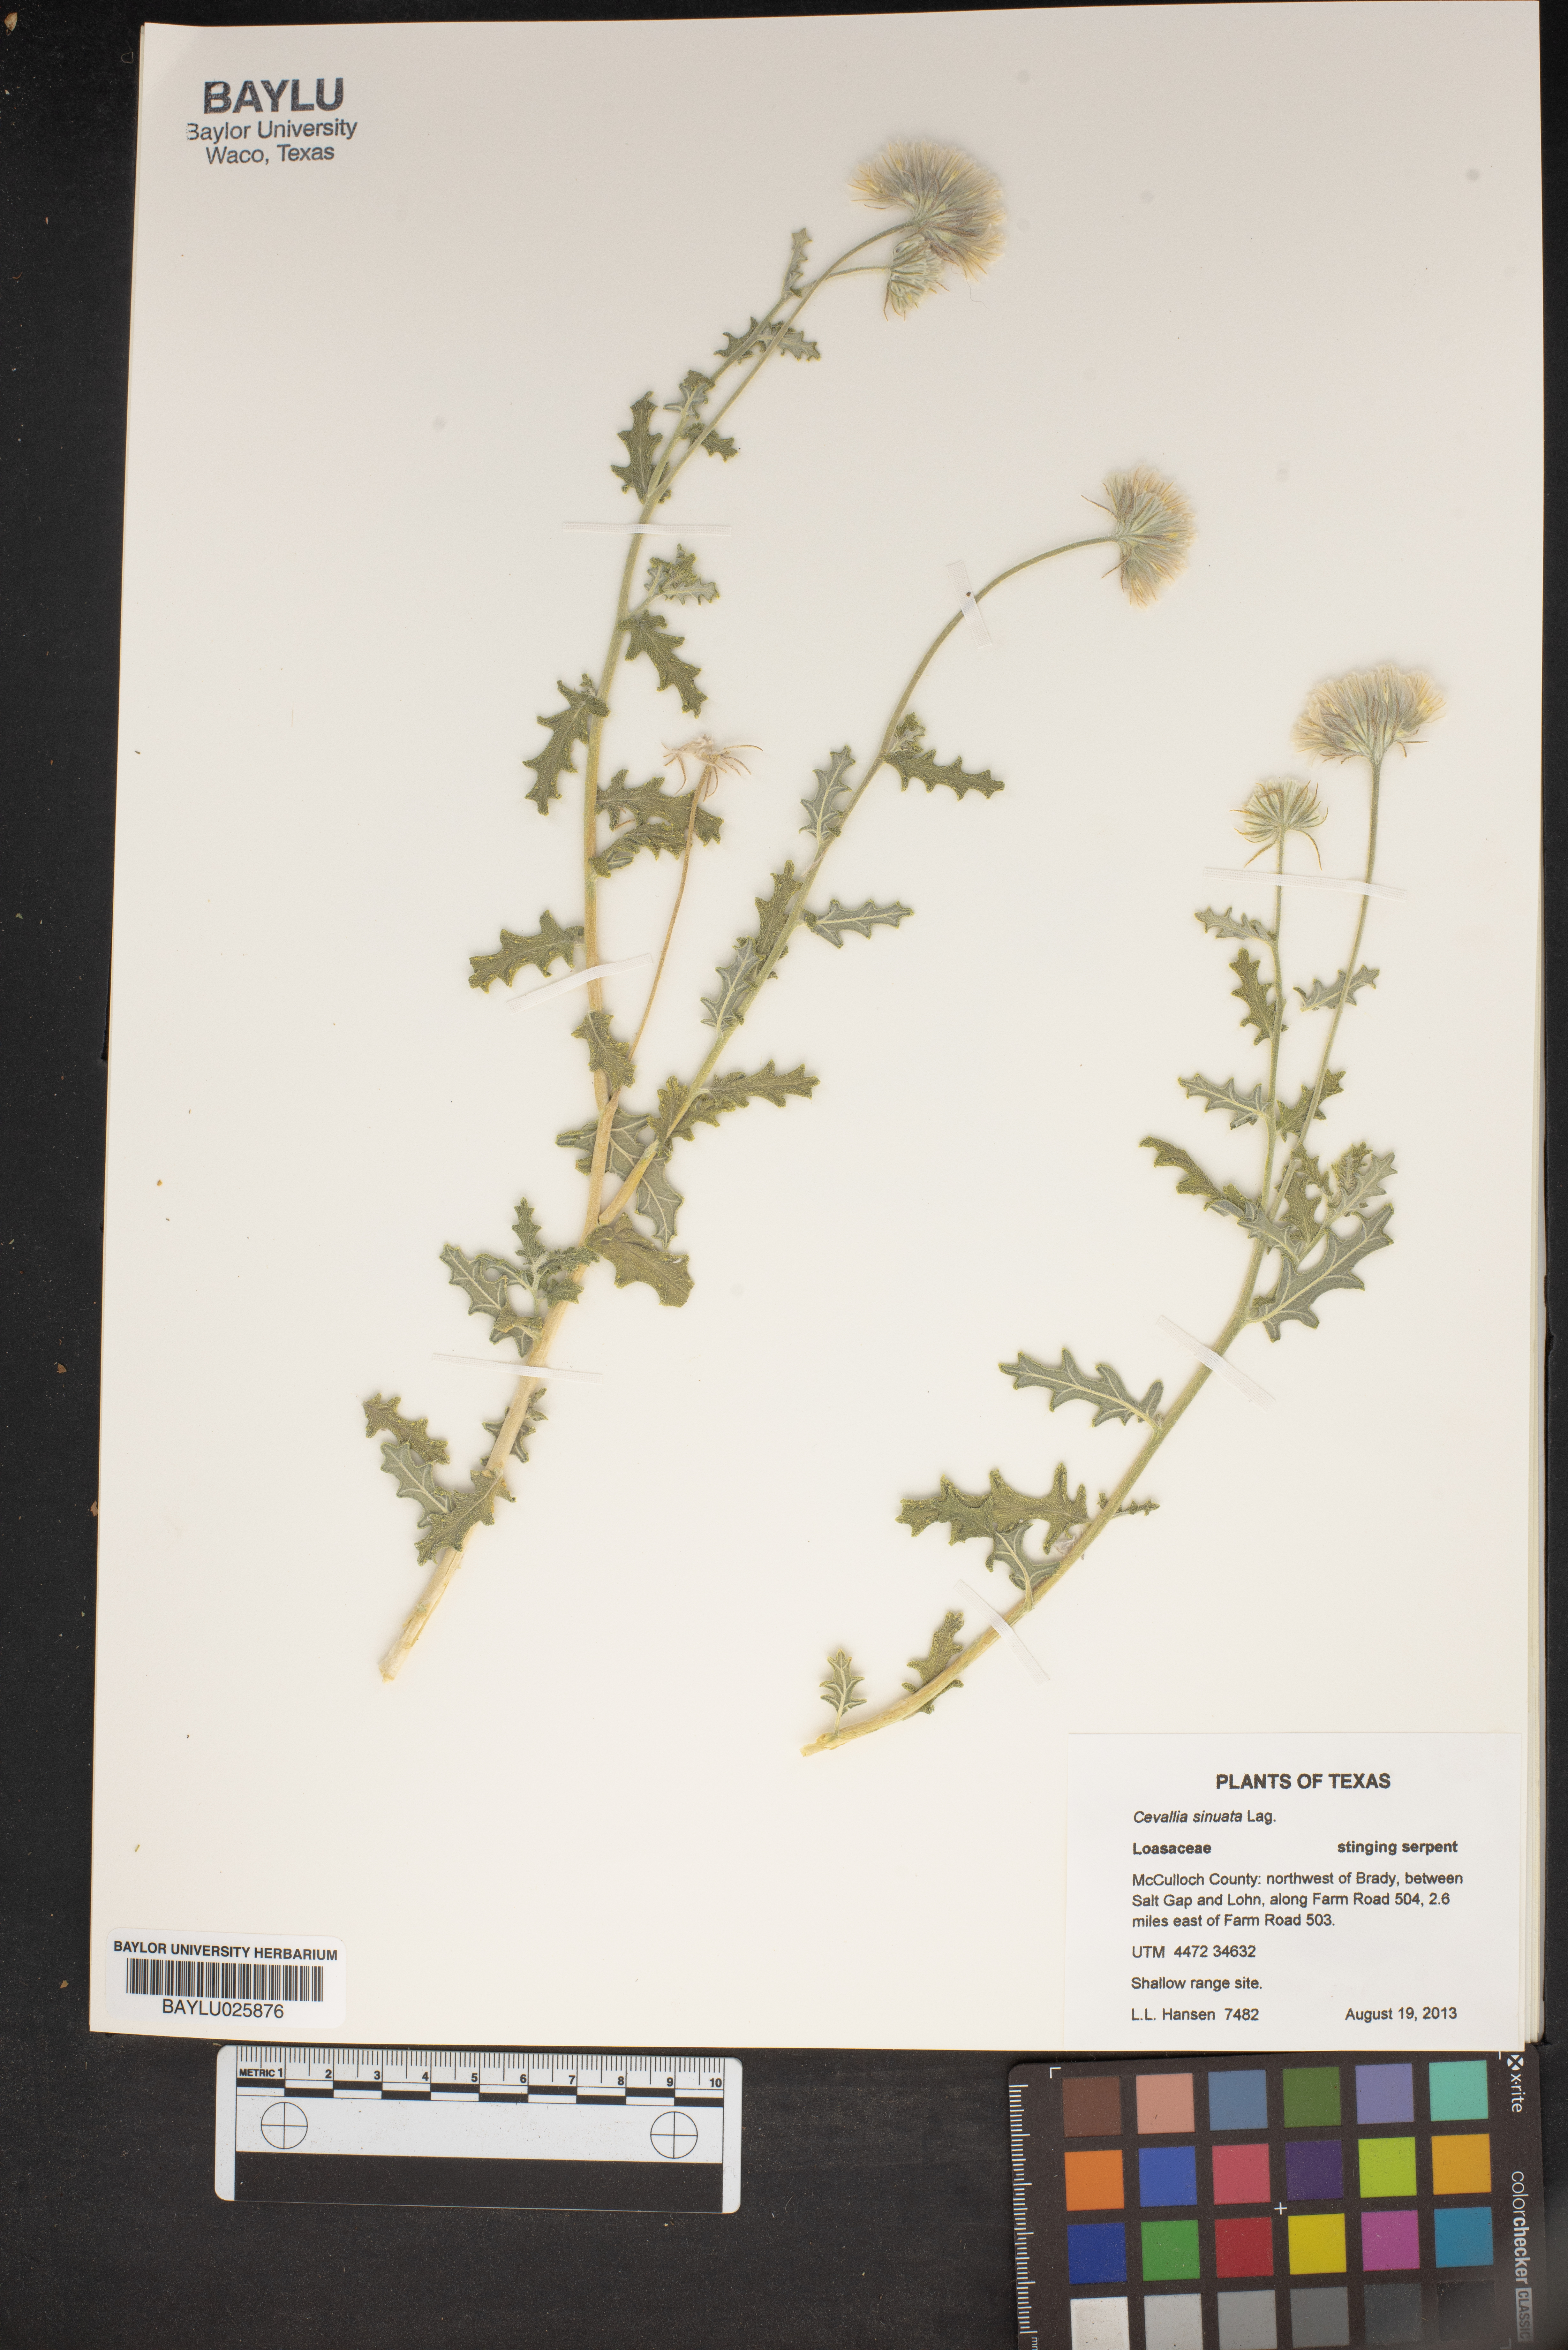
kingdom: Plantae
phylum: Tracheophyta
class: Magnoliopsida
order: Cornales
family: Loasaceae
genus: Cevallia
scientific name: Cevallia sinuata
